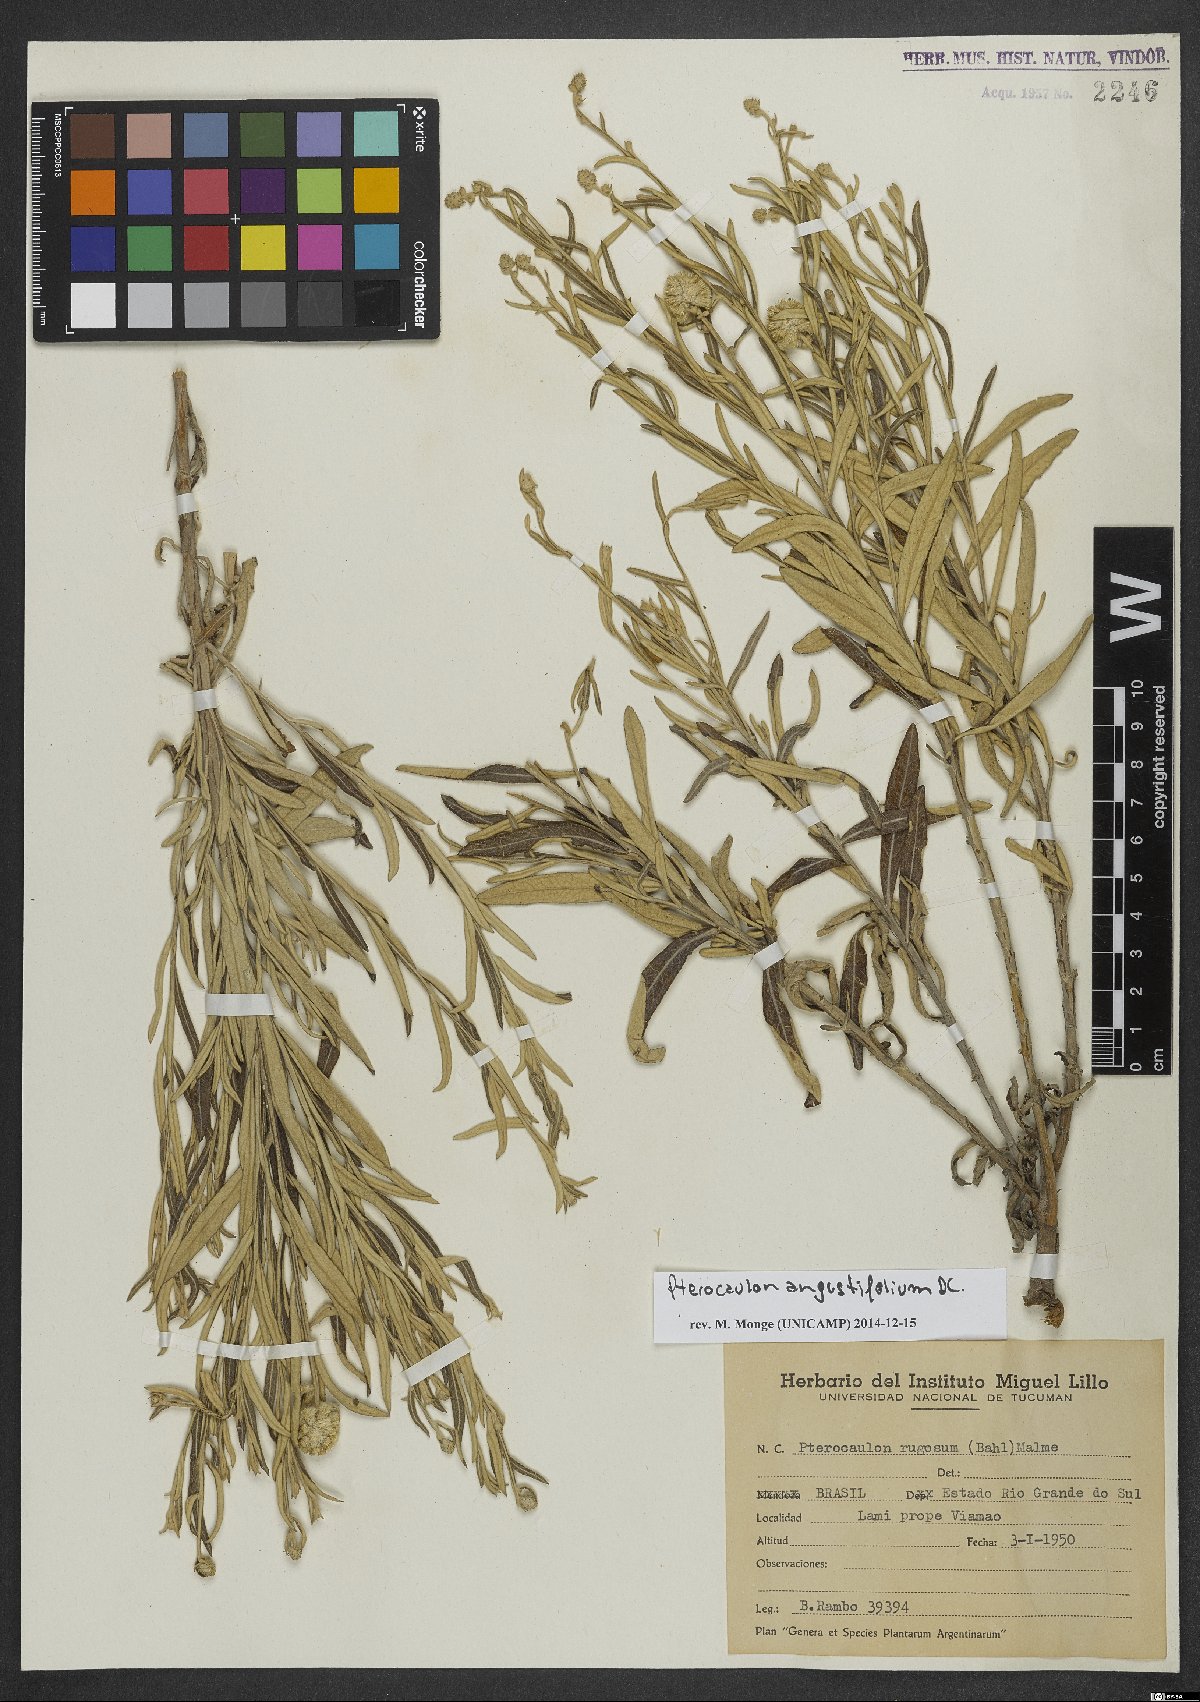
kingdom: Plantae
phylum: Tracheophyta
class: Magnoliopsida
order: Asterales
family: Asteraceae
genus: Pterocaulon
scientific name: Pterocaulon angustifolium
